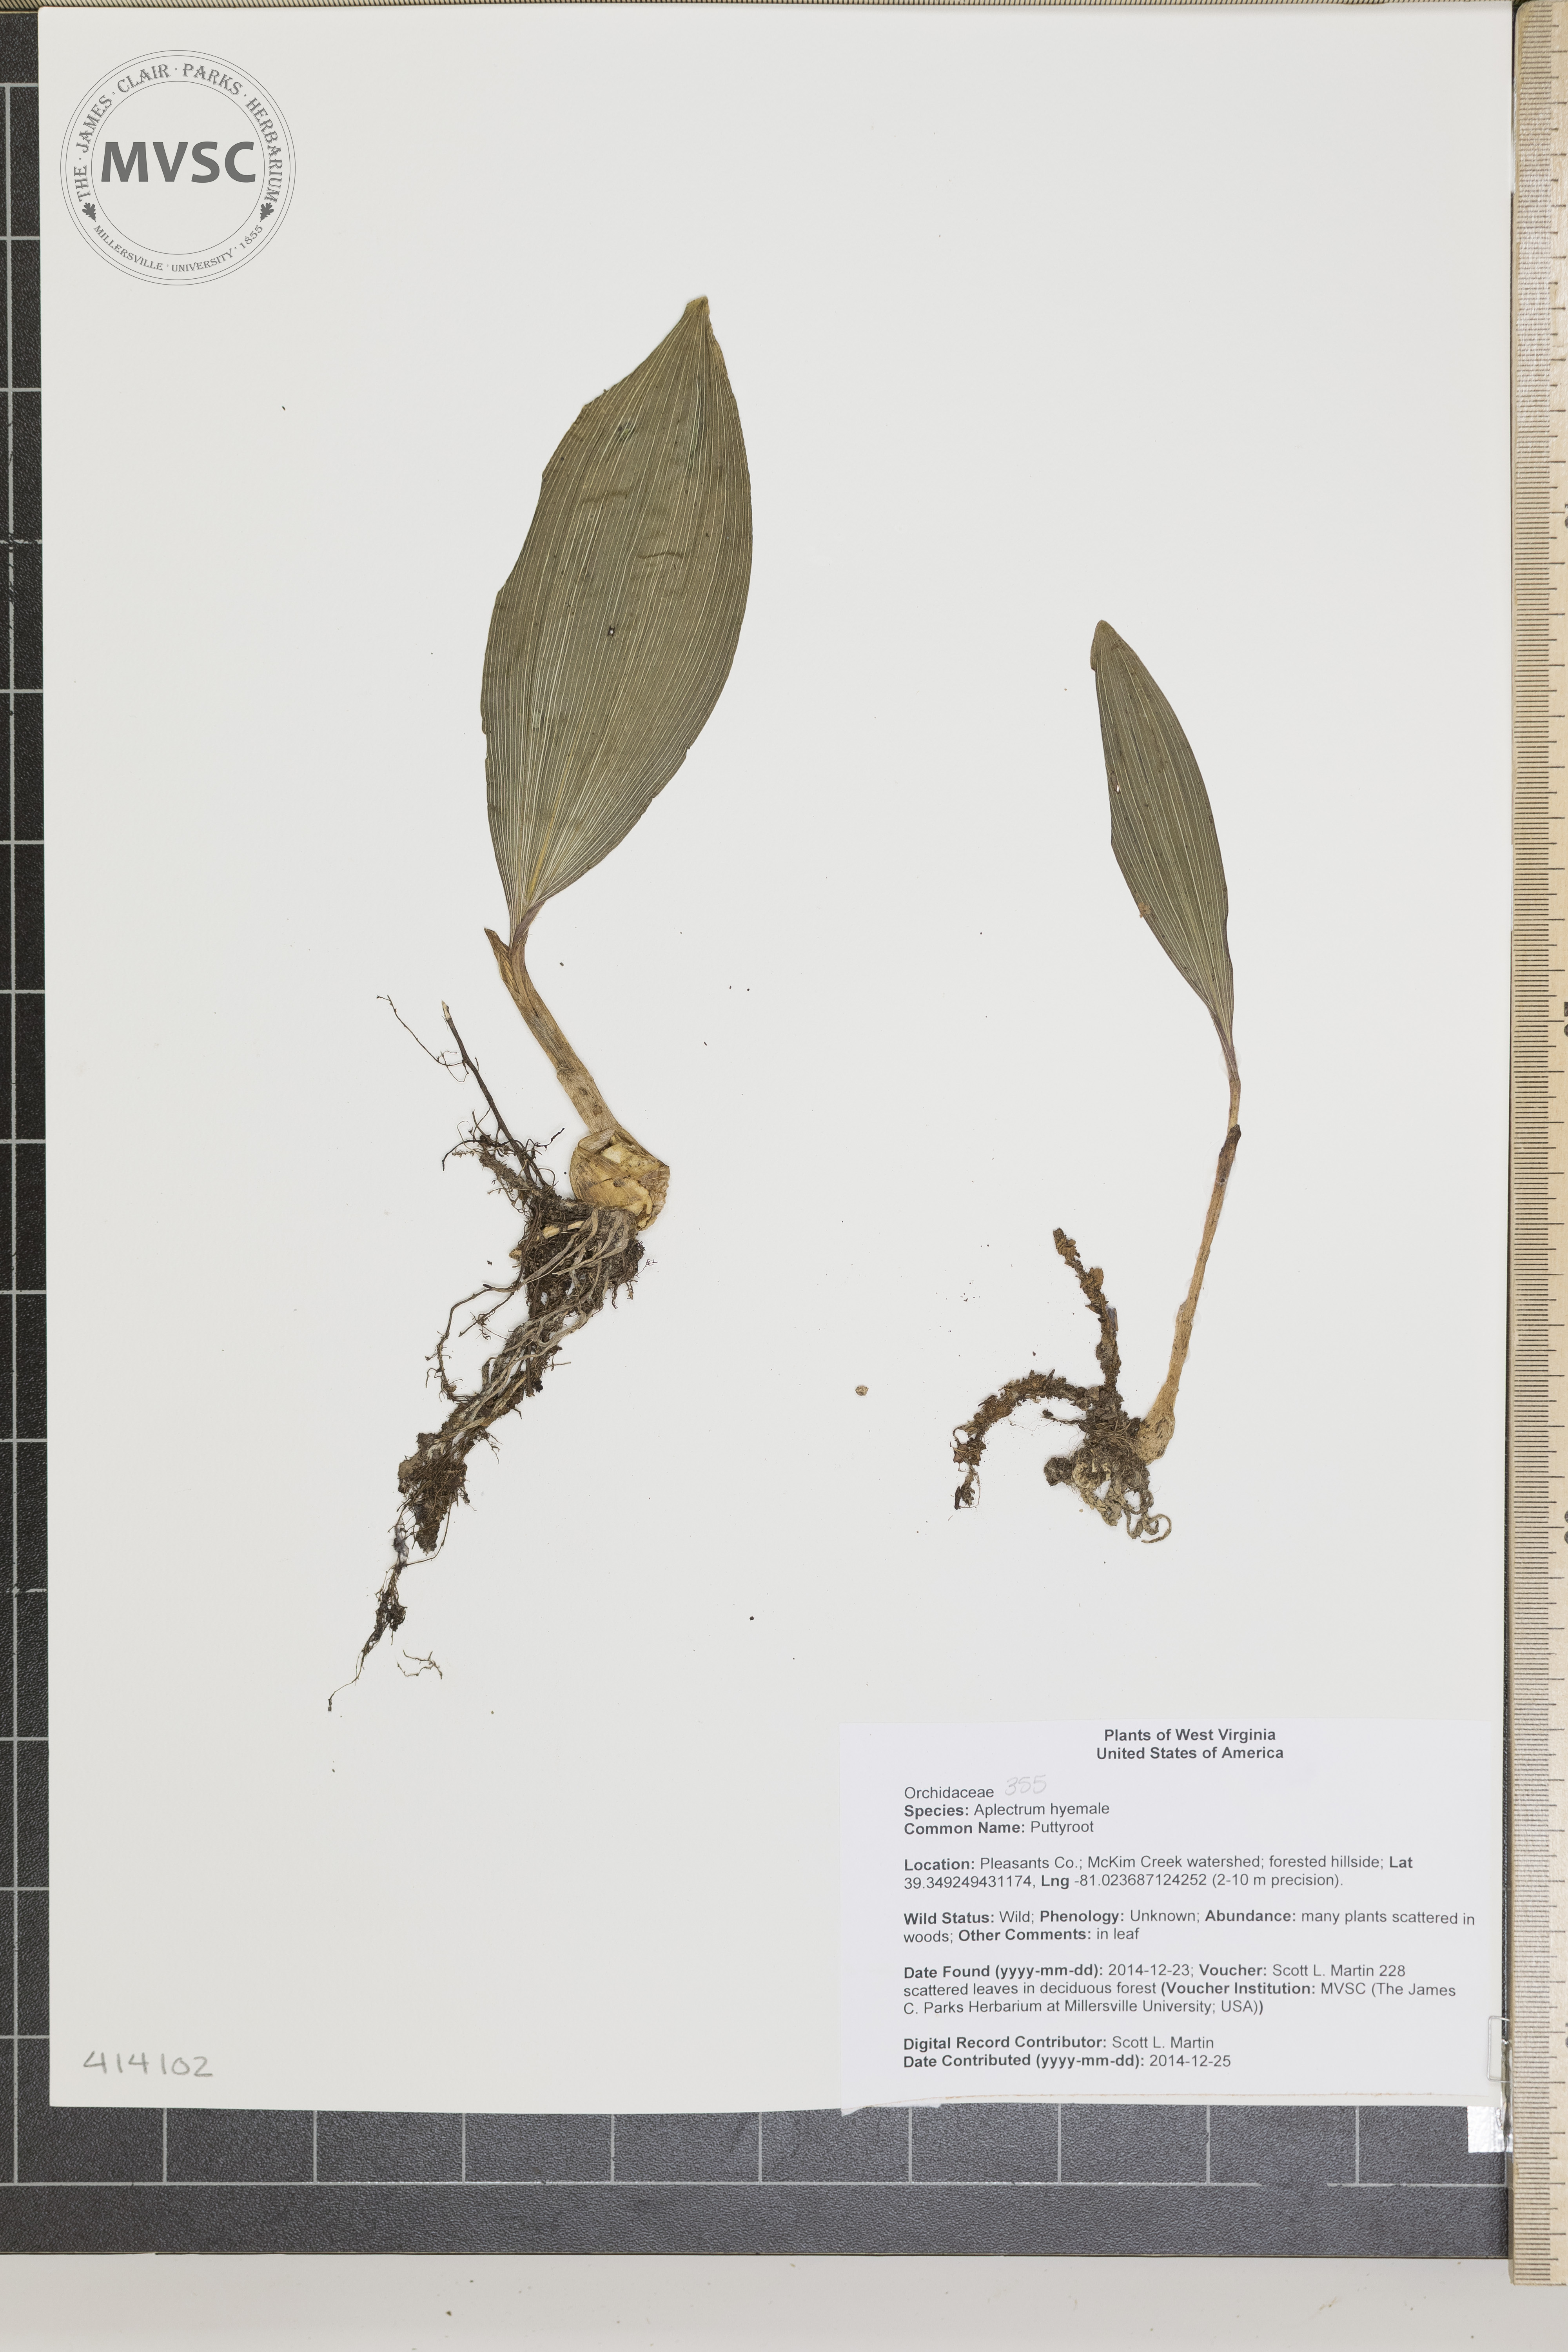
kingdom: Plantae
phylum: Tracheophyta
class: Liliopsida
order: Asparagales
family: Orchidaceae
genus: Aplectrum
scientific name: Aplectrum hyemale
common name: Puttyroot
